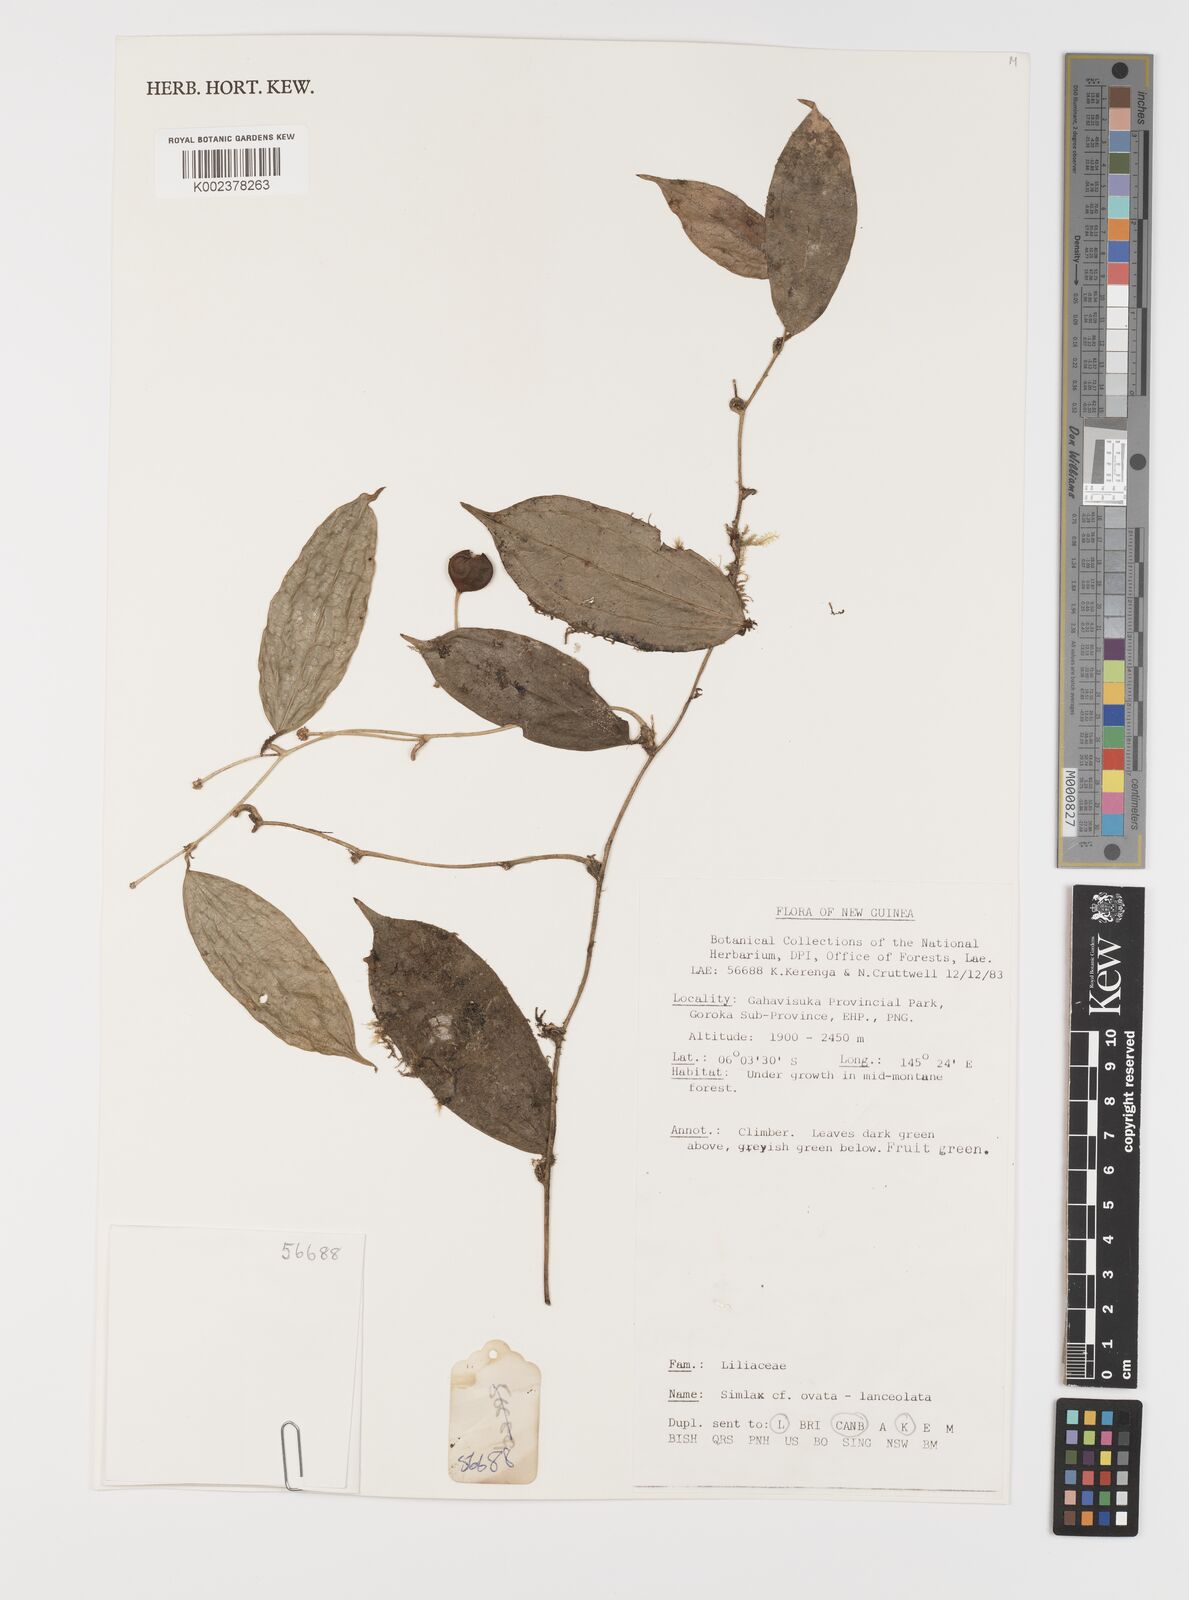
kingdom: Plantae
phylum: Tracheophyta
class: Liliopsida
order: Liliales
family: Smilacaceae
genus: Smilax
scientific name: Smilax
